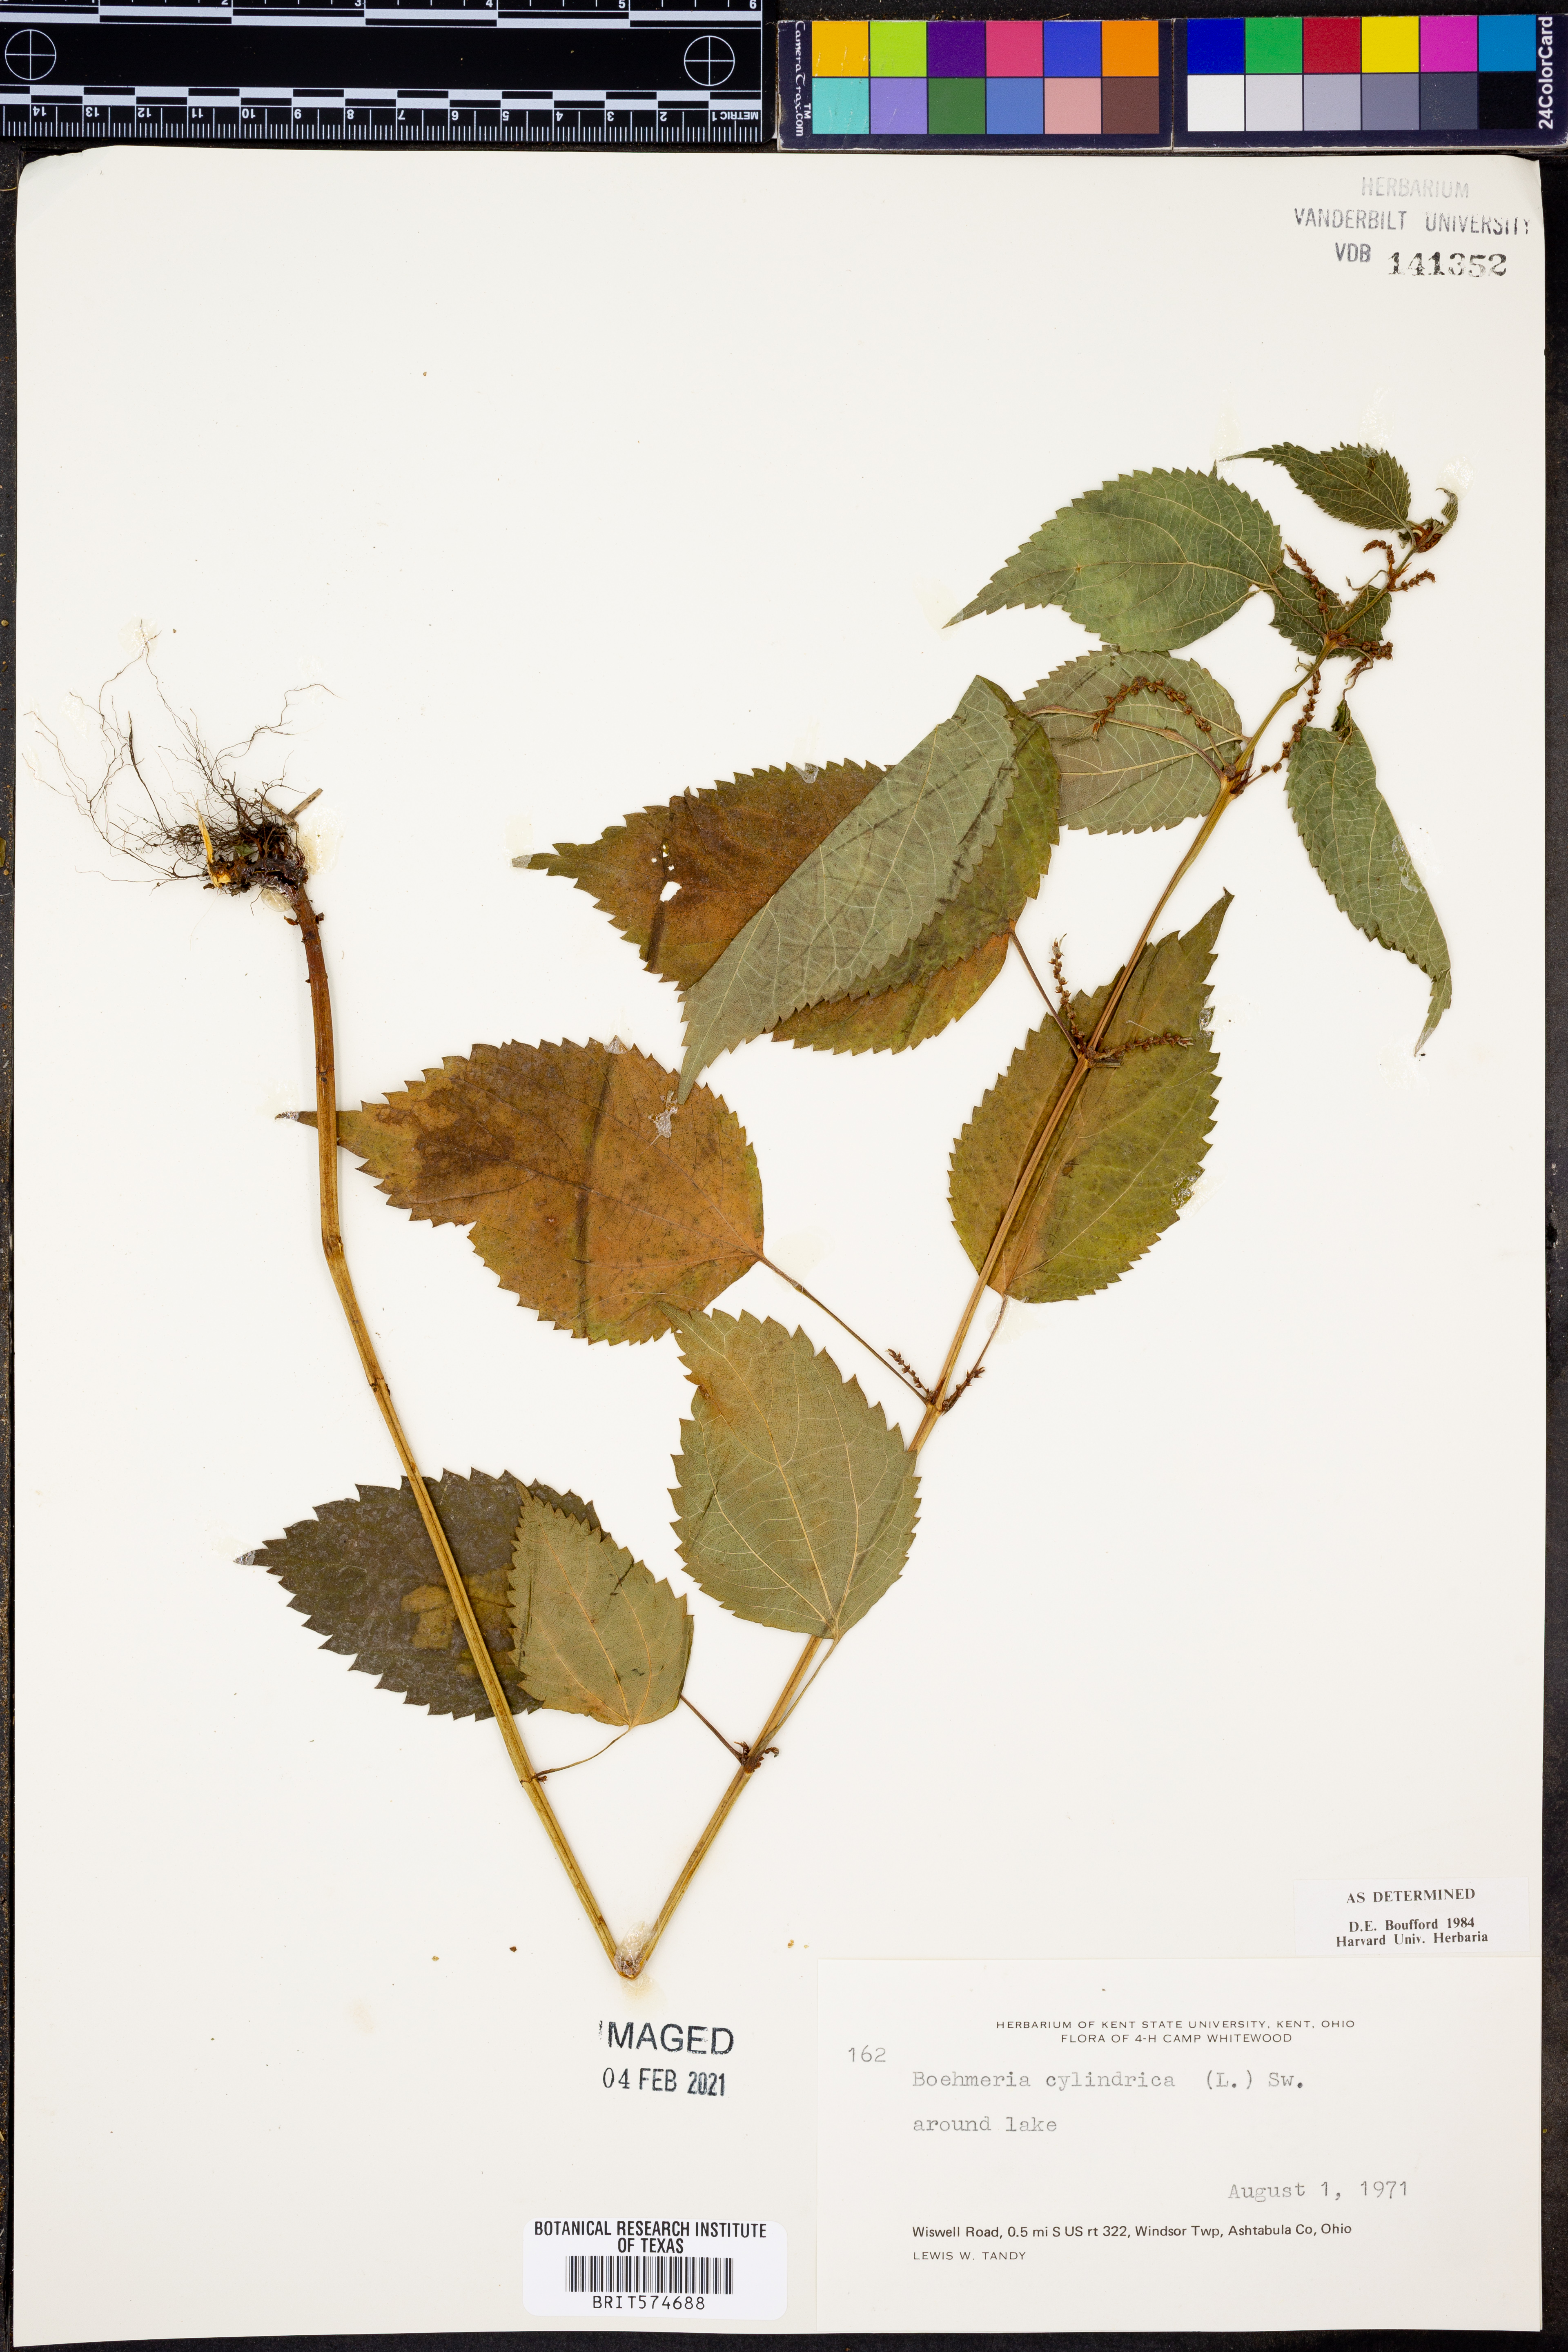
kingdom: Plantae
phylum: Tracheophyta
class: Magnoliopsida
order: Rosales
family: Urticaceae
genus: Boehmeria
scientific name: Boehmeria cylindrica
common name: Bog-hemp
